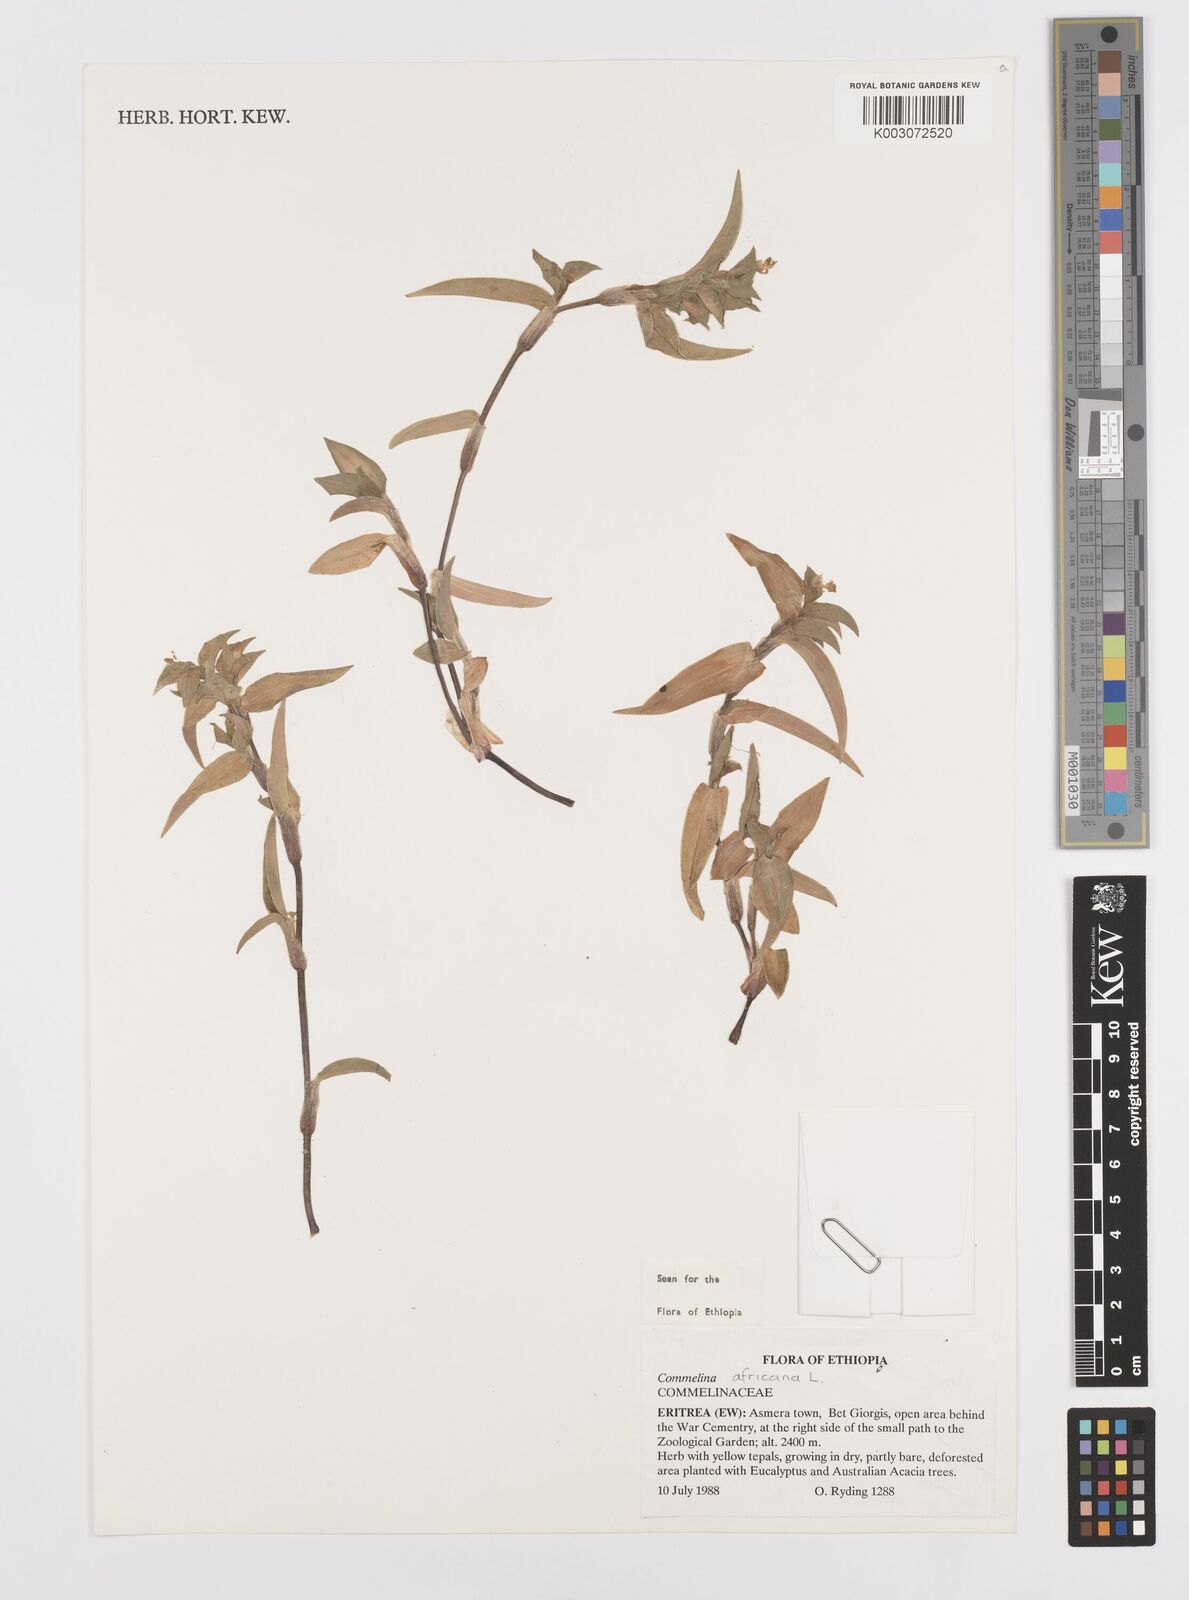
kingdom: Plantae
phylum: Tracheophyta
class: Liliopsida
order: Commelinales
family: Commelinaceae
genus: Commelina
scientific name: Commelina africana
